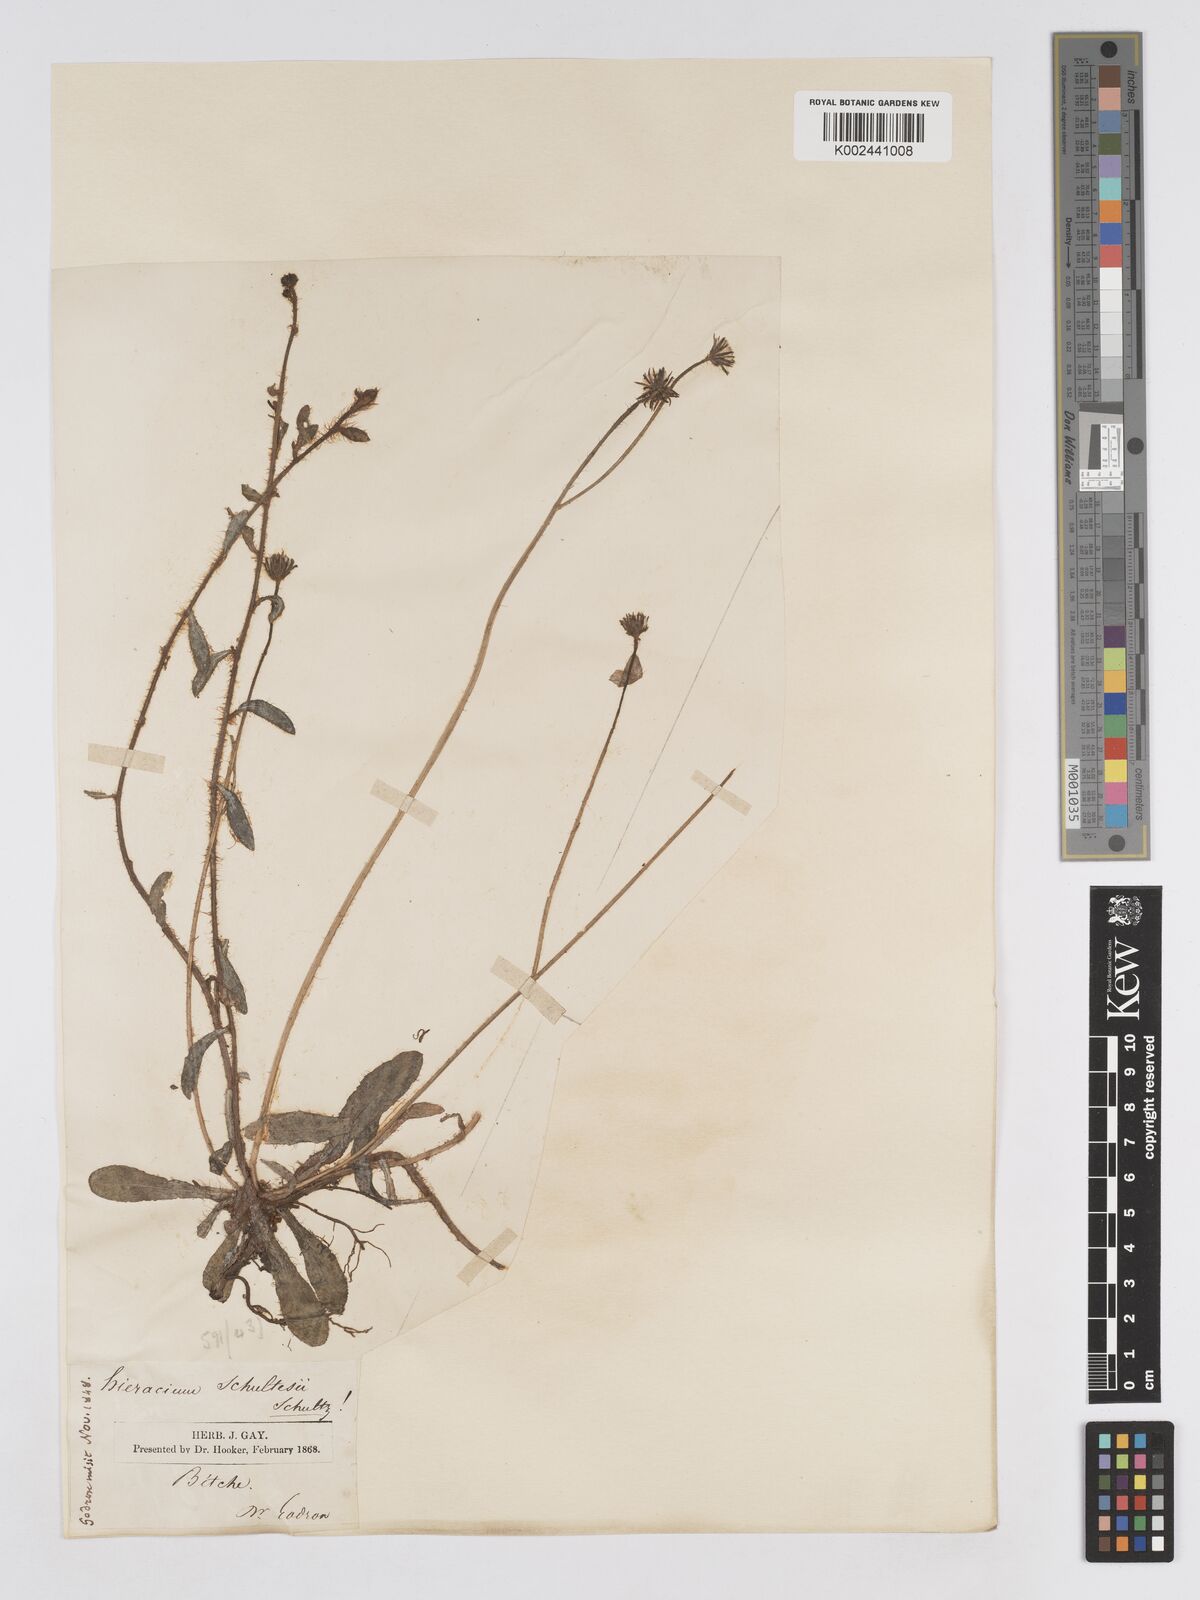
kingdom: Plantae
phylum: Tracheophyta
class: Magnoliopsida
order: Asterales
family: Asteraceae
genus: Pilosella
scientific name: Pilosella schultesii
